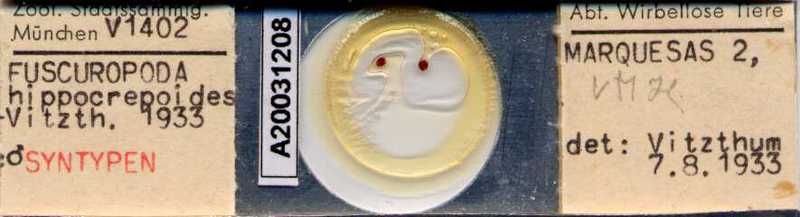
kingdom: Animalia
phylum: Arthropoda
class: Arachnida
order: Mesostigmata
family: Uroactiniidae
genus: Uroactinia
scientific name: Uroactinia hippocrepoides
